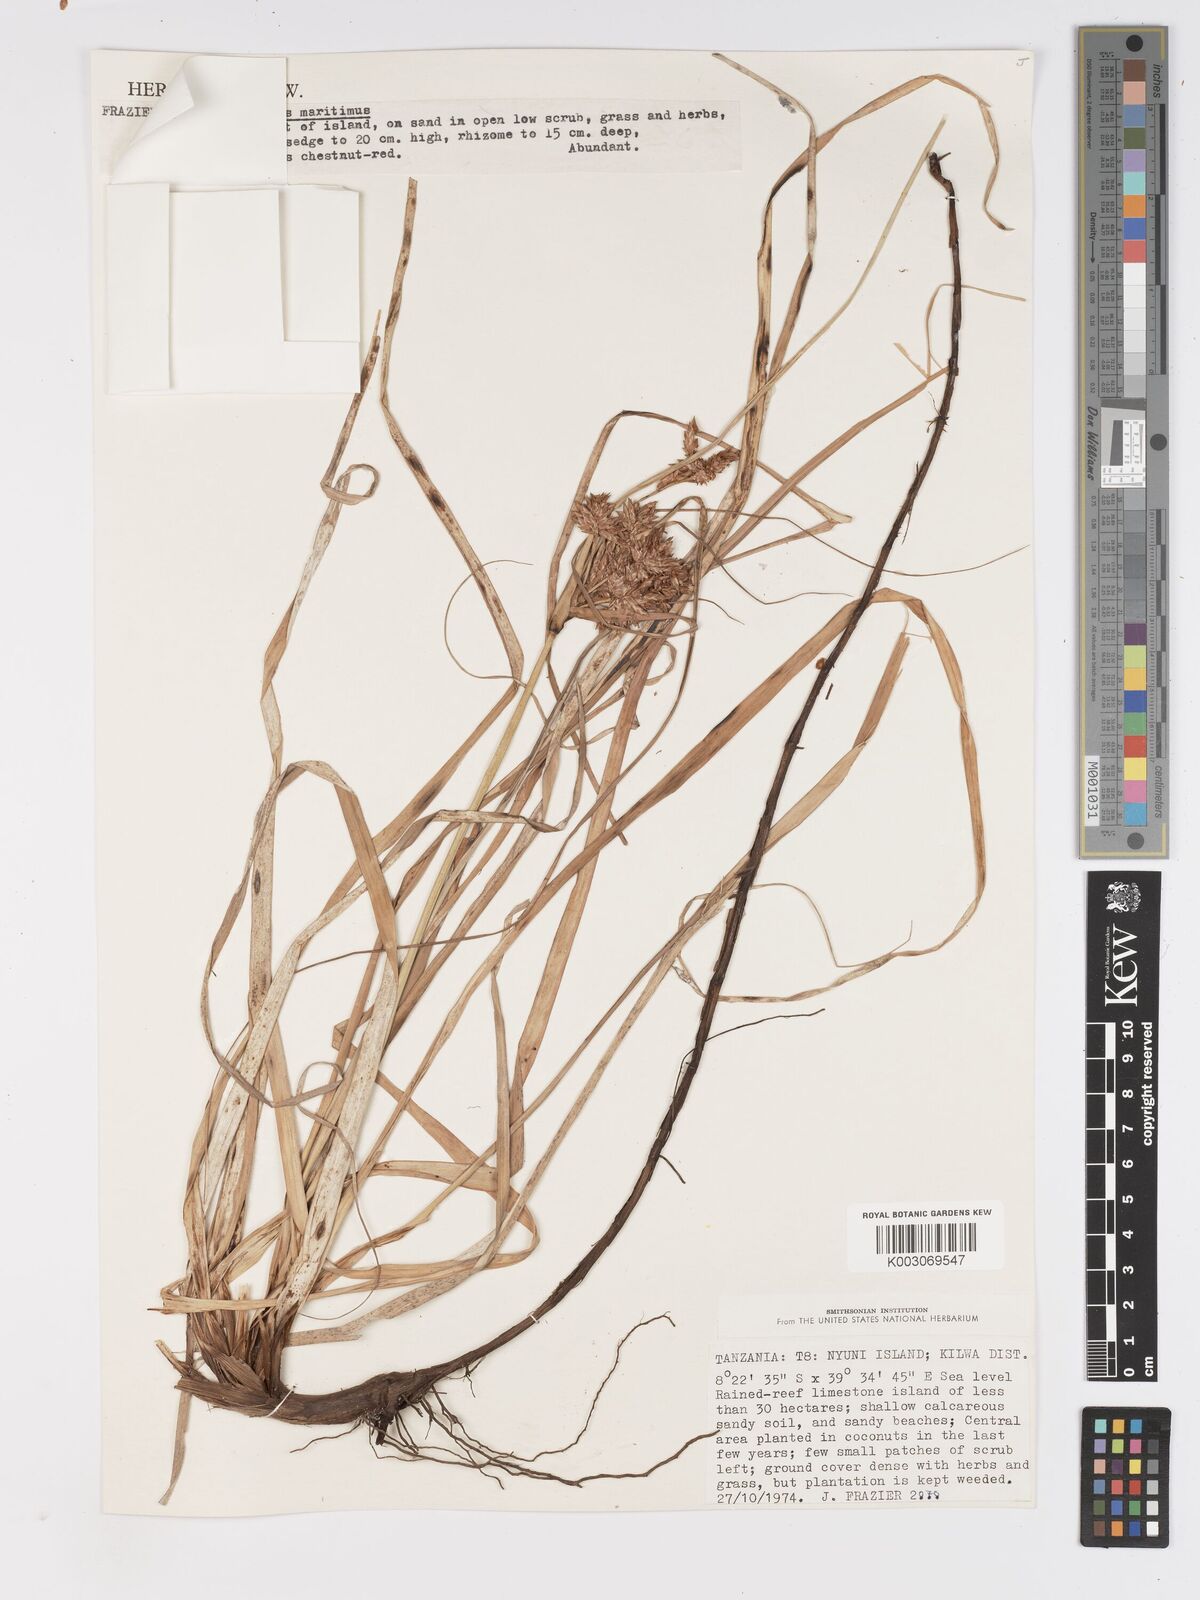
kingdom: Plantae
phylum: Tracheophyta
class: Liliopsida
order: Poales
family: Cyperaceae
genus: Cyperus
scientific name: Cyperus crassipes
